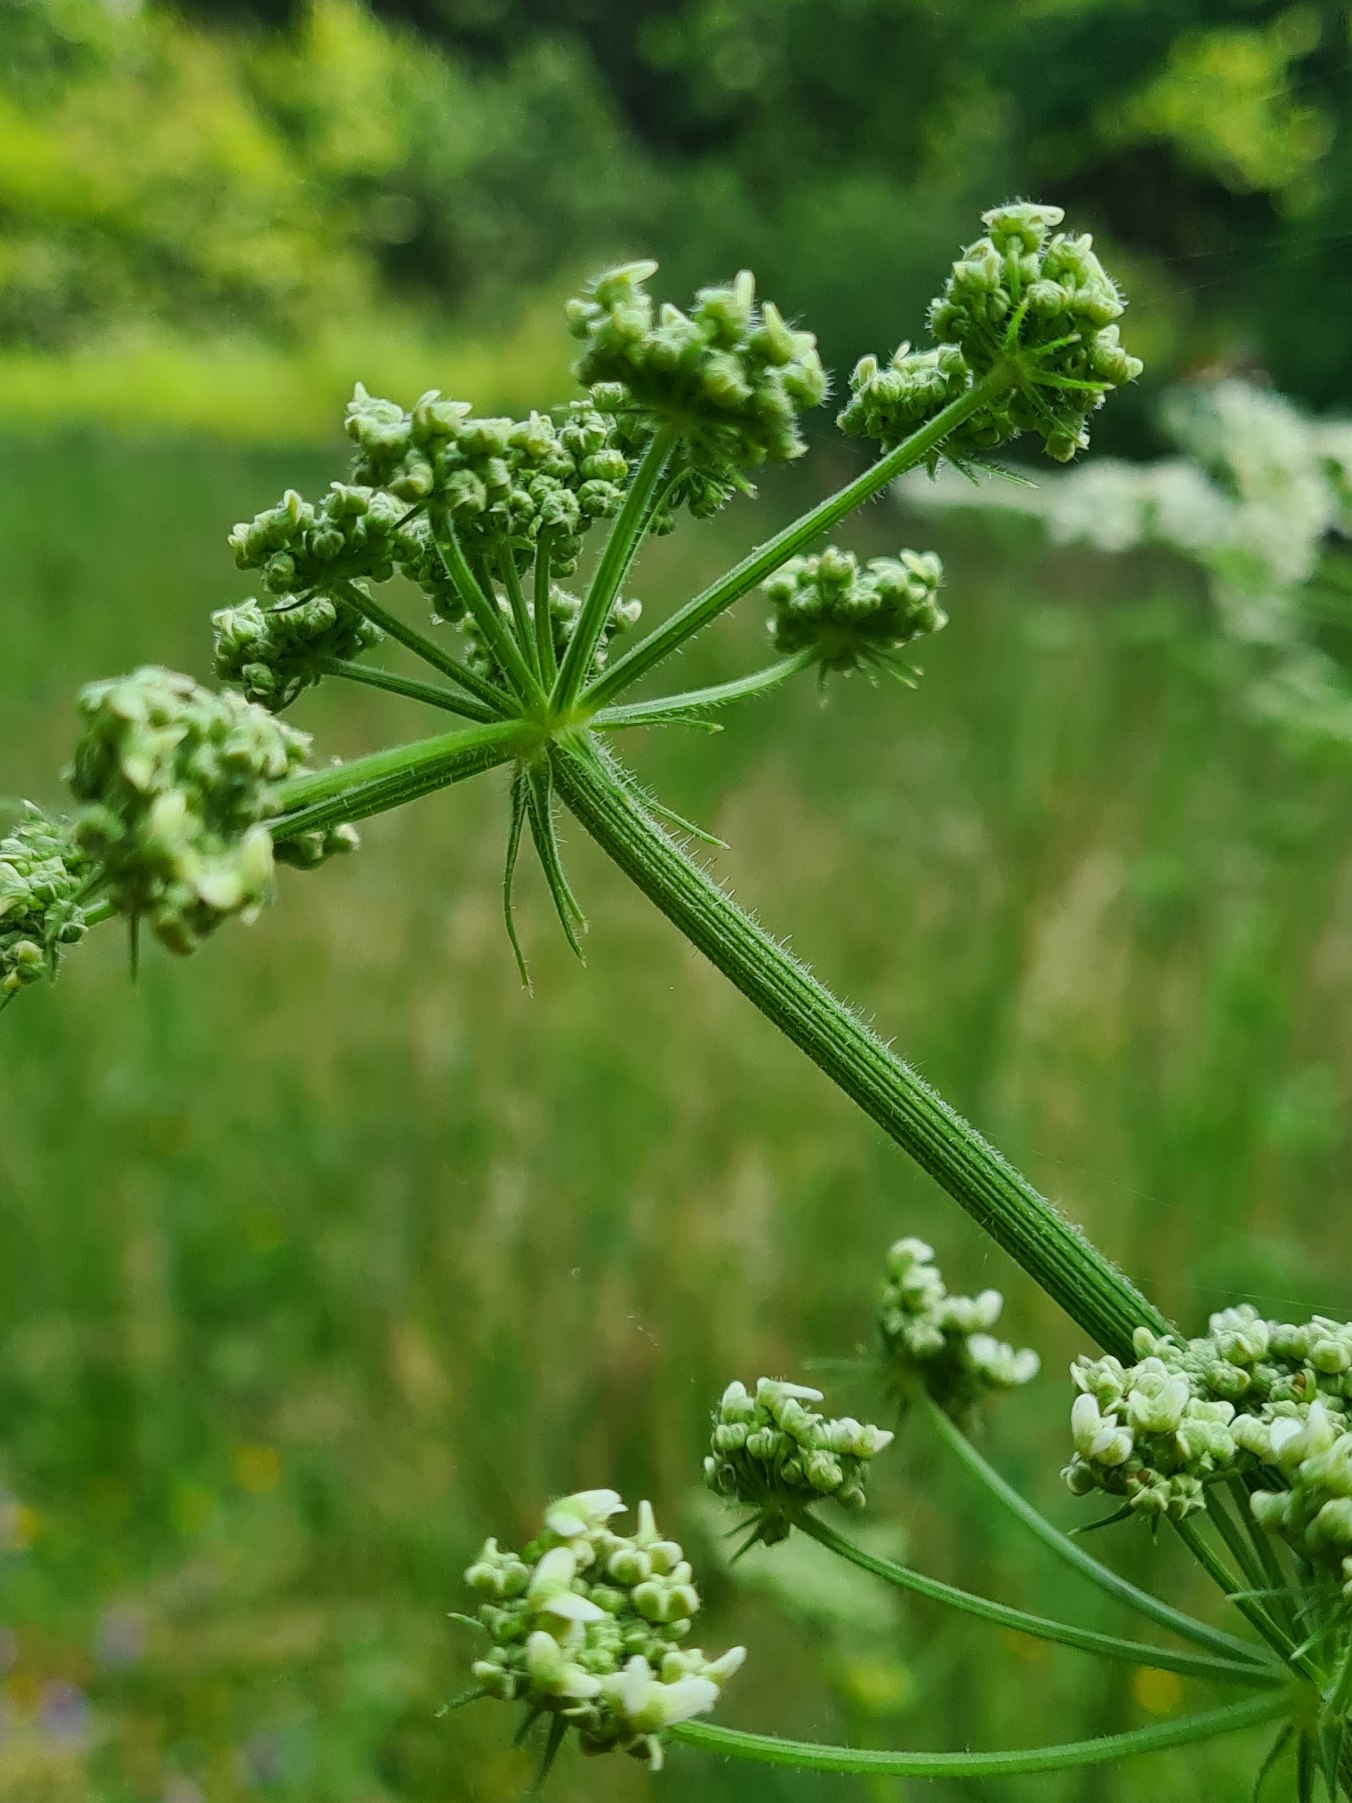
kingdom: Plantae
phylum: Tracheophyta
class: Magnoliopsida
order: Apiales
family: Apiaceae
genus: Heracleum
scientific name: Heracleum sphondylium
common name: Almindelig bjørneklo
